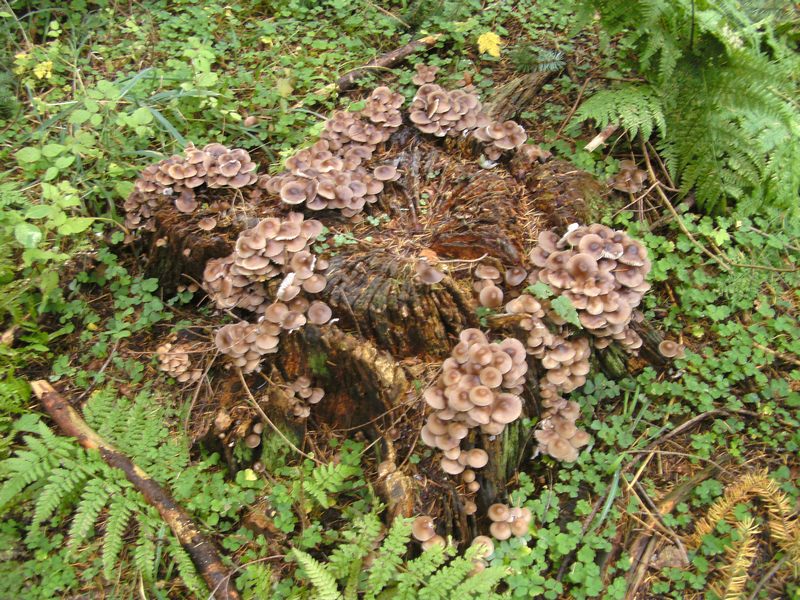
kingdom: Fungi
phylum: Basidiomycota
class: Agaricomycetes
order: Agaricales
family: Mycenaceae
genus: Mycena
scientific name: Mycena inclinata
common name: nikkende huesvamp
